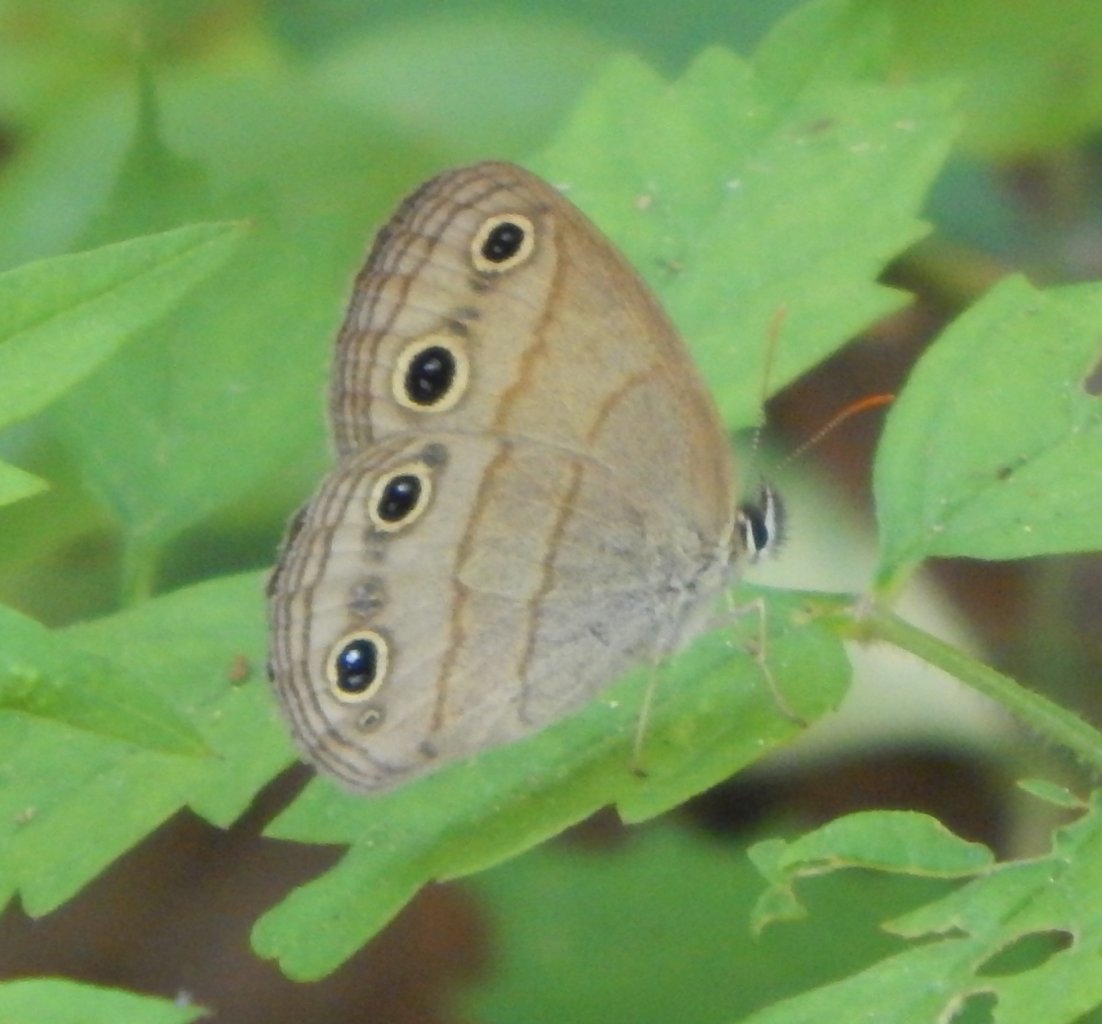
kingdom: Animalia
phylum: Arthropoda
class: Insecta
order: Lepidoptera
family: Nymphalidae
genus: Euptychia
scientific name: Euptychia cymela
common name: Little Wood Satyr
